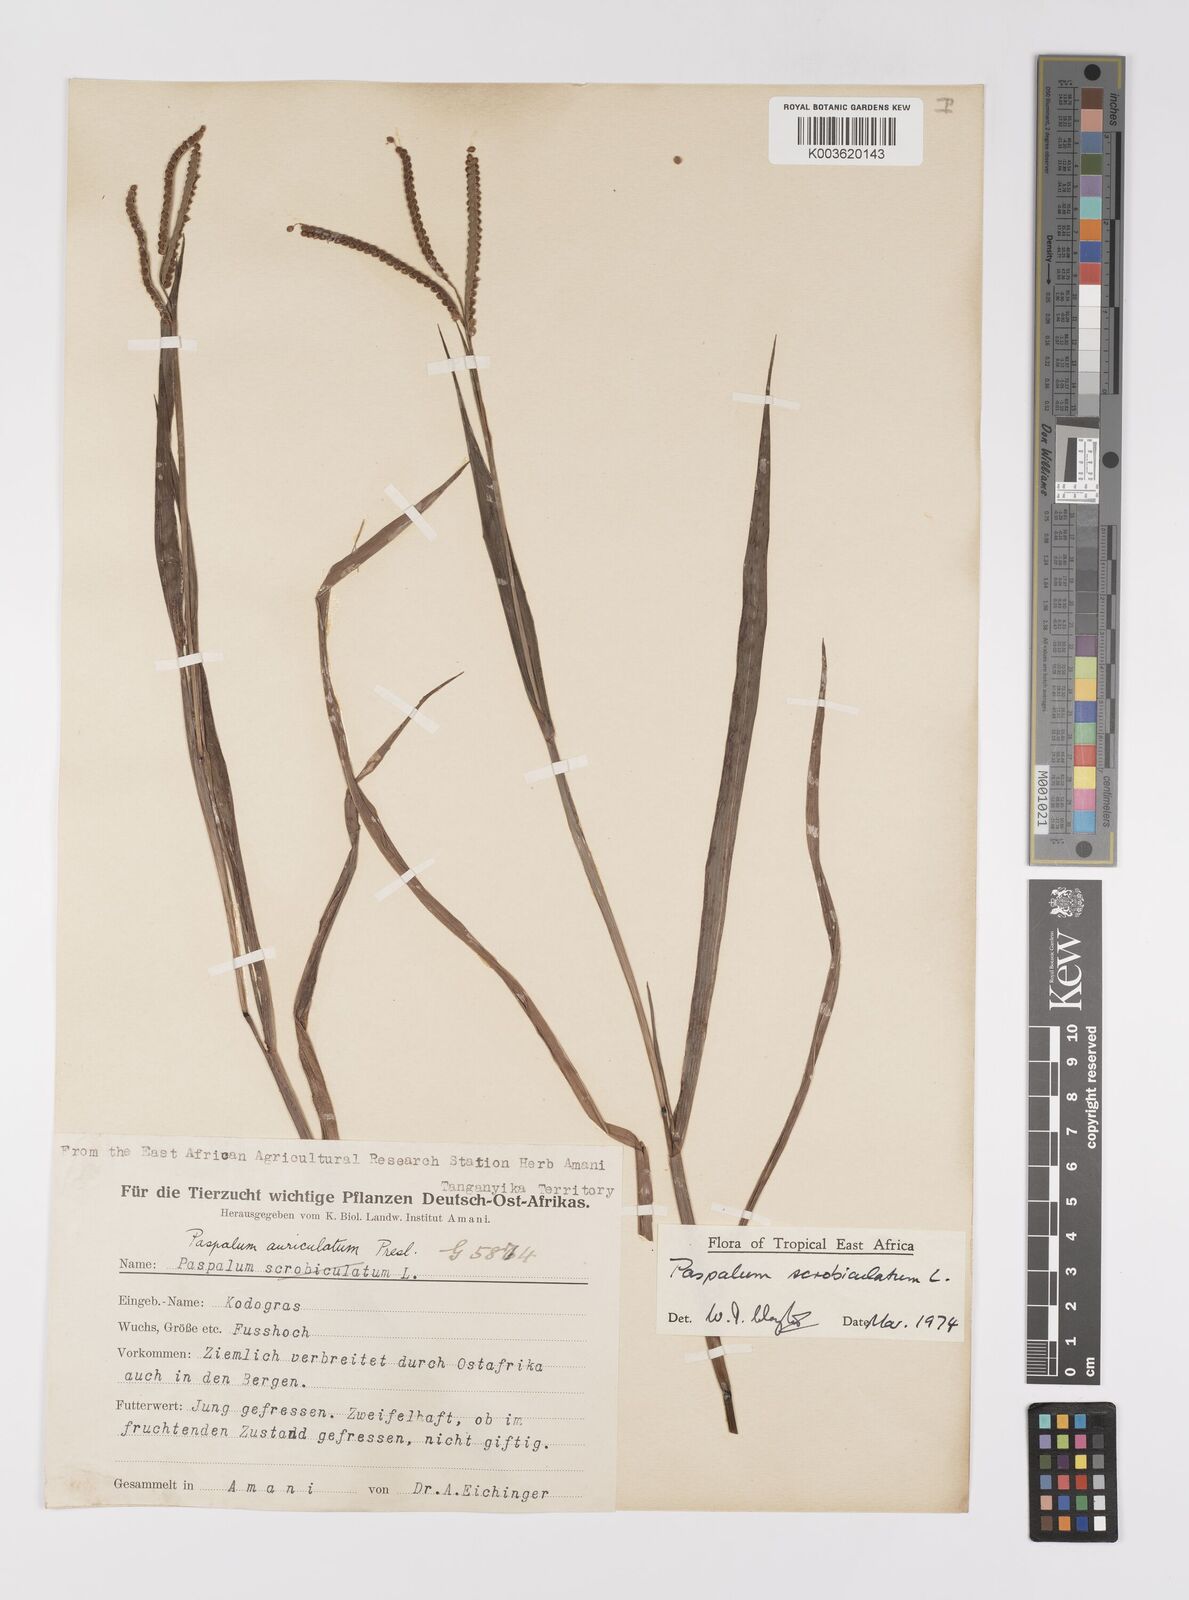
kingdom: Plantae
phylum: Tracheophyta
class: Liliopsida
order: Poales
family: Poaceae
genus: Paspalum
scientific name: Paspalum scrobiculatum
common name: Kodo millet
